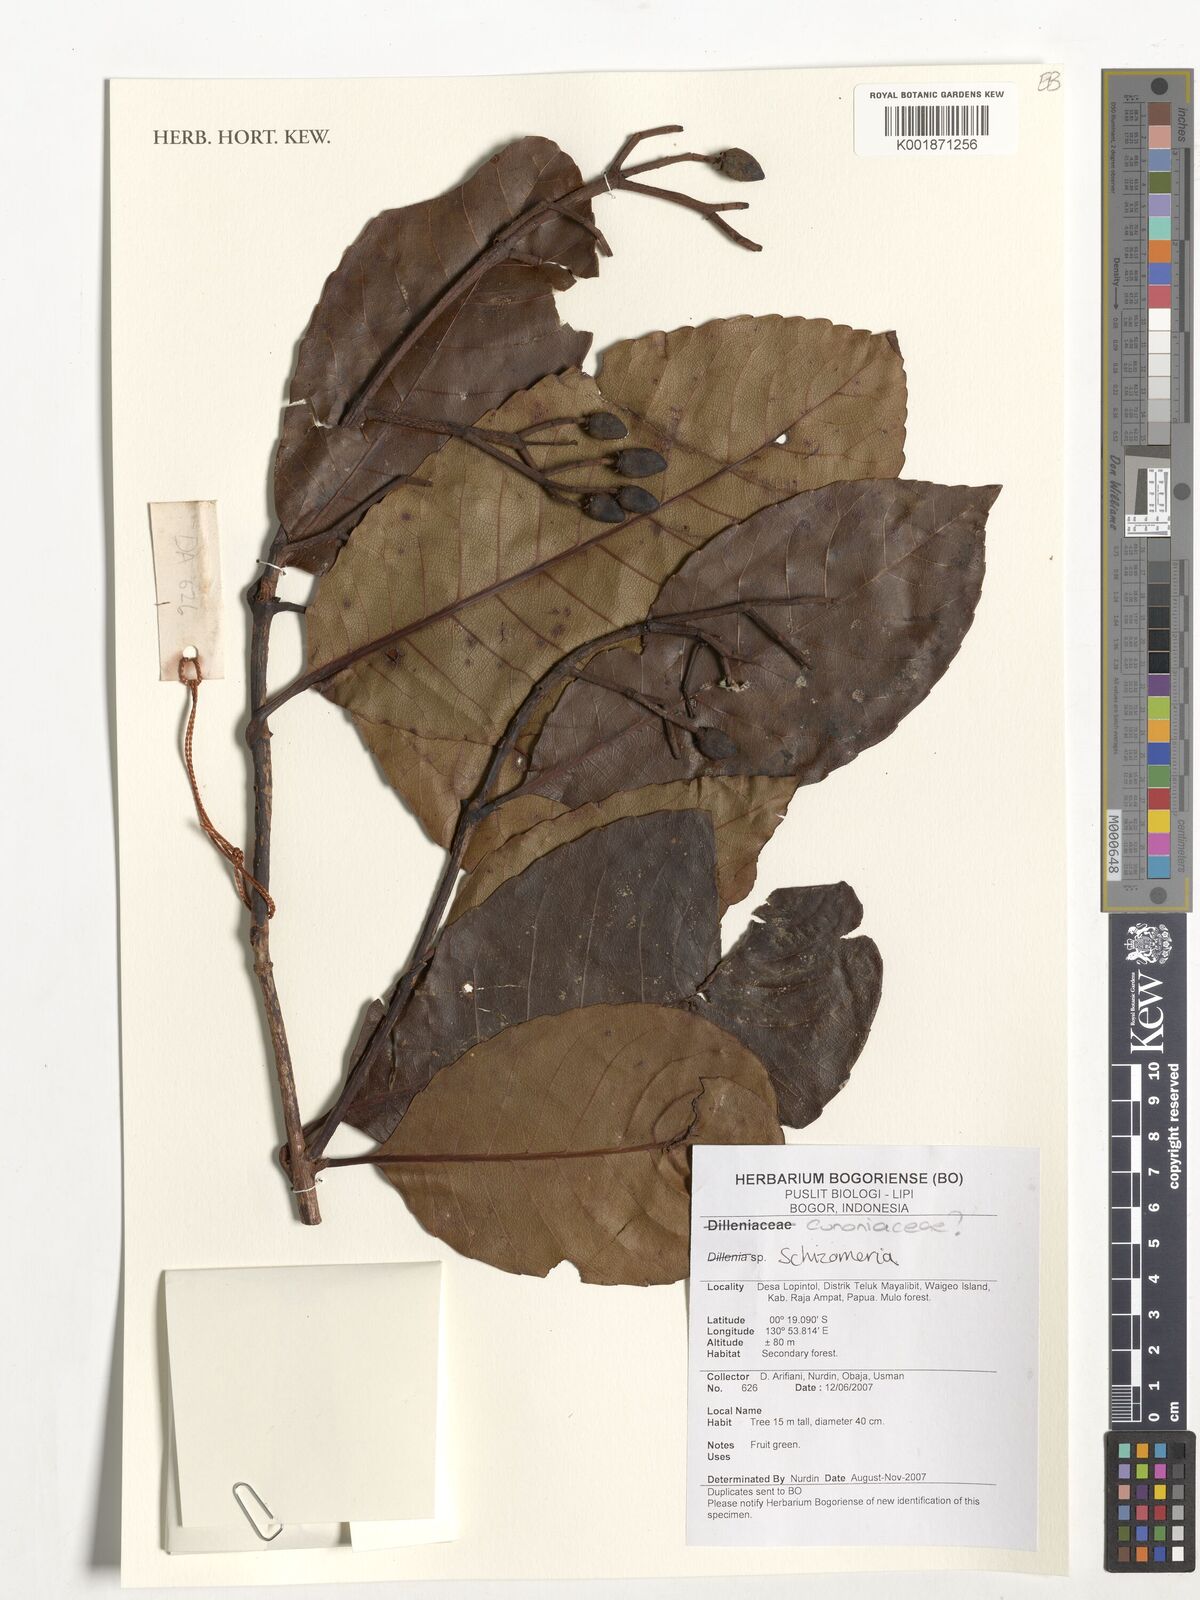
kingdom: Plantae
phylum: Tracheophyta
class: Magnoliopsida
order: Oxalidales
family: Cunoniaceae
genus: Schizomeria
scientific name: Schizomeria
